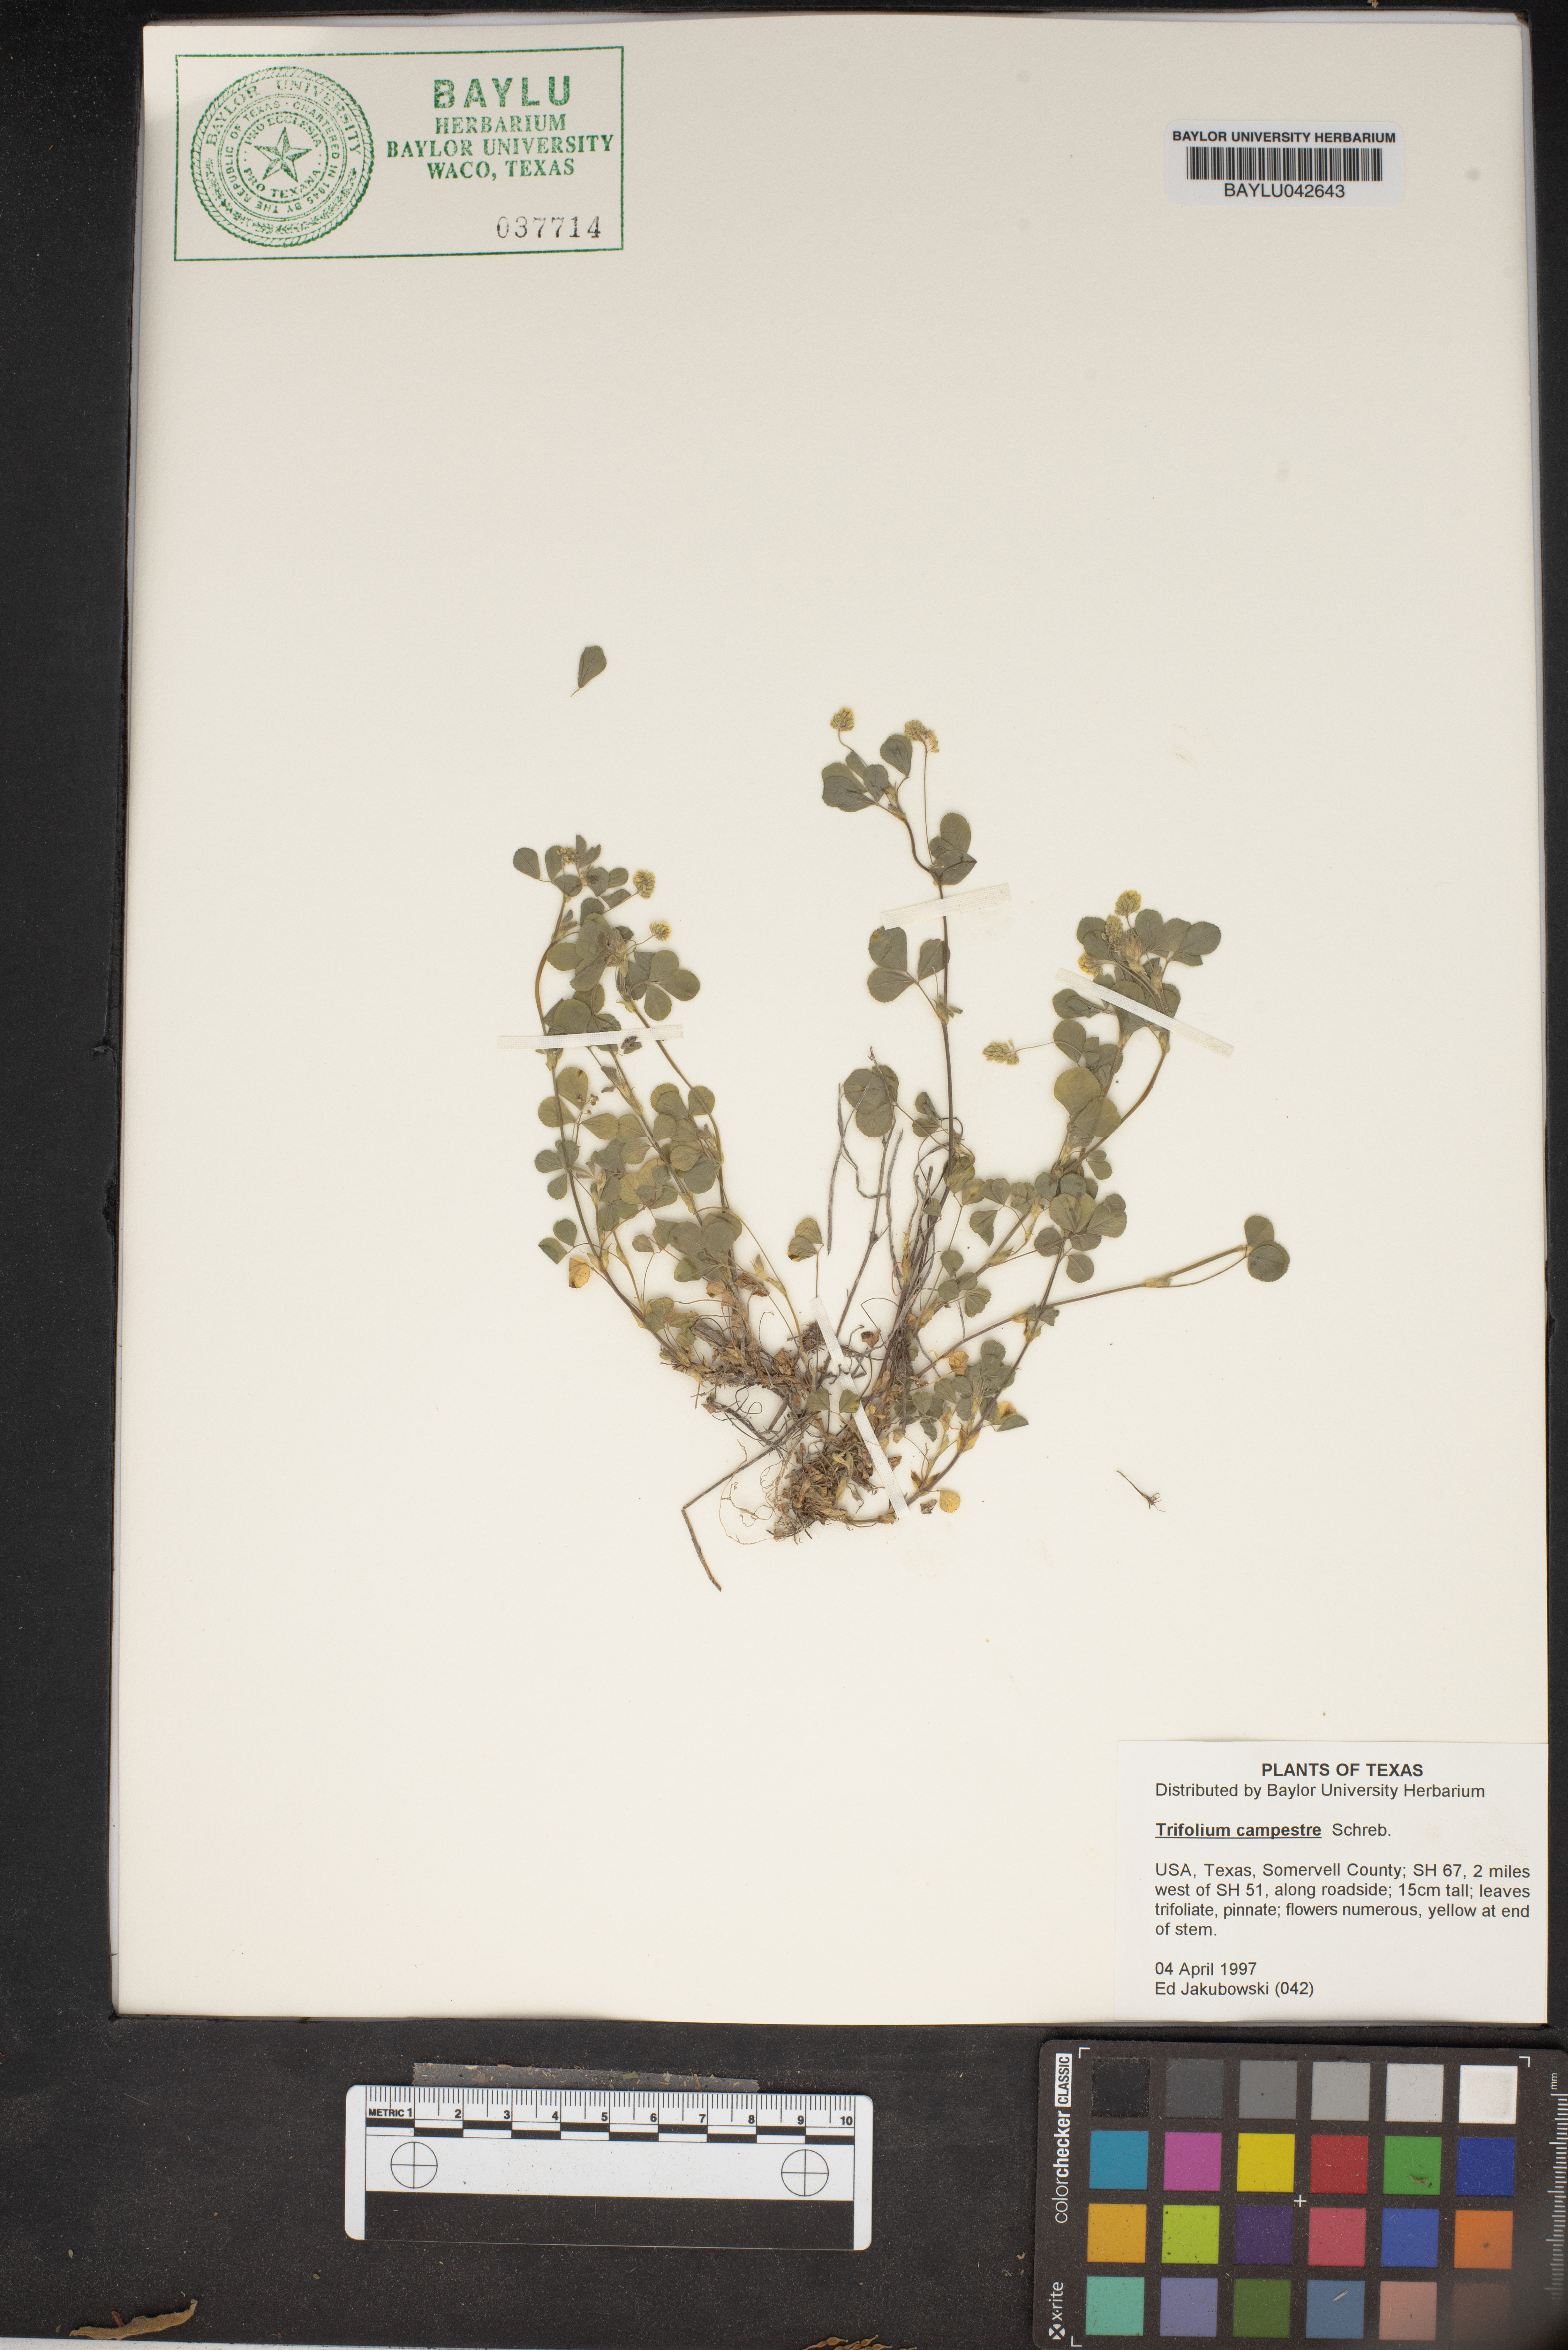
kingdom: Plantae
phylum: Tracheophyta
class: Magnoliopsida
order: Fabales
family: Fabaceae
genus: Trifolium
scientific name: Trifolium campestre
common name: Field clover
